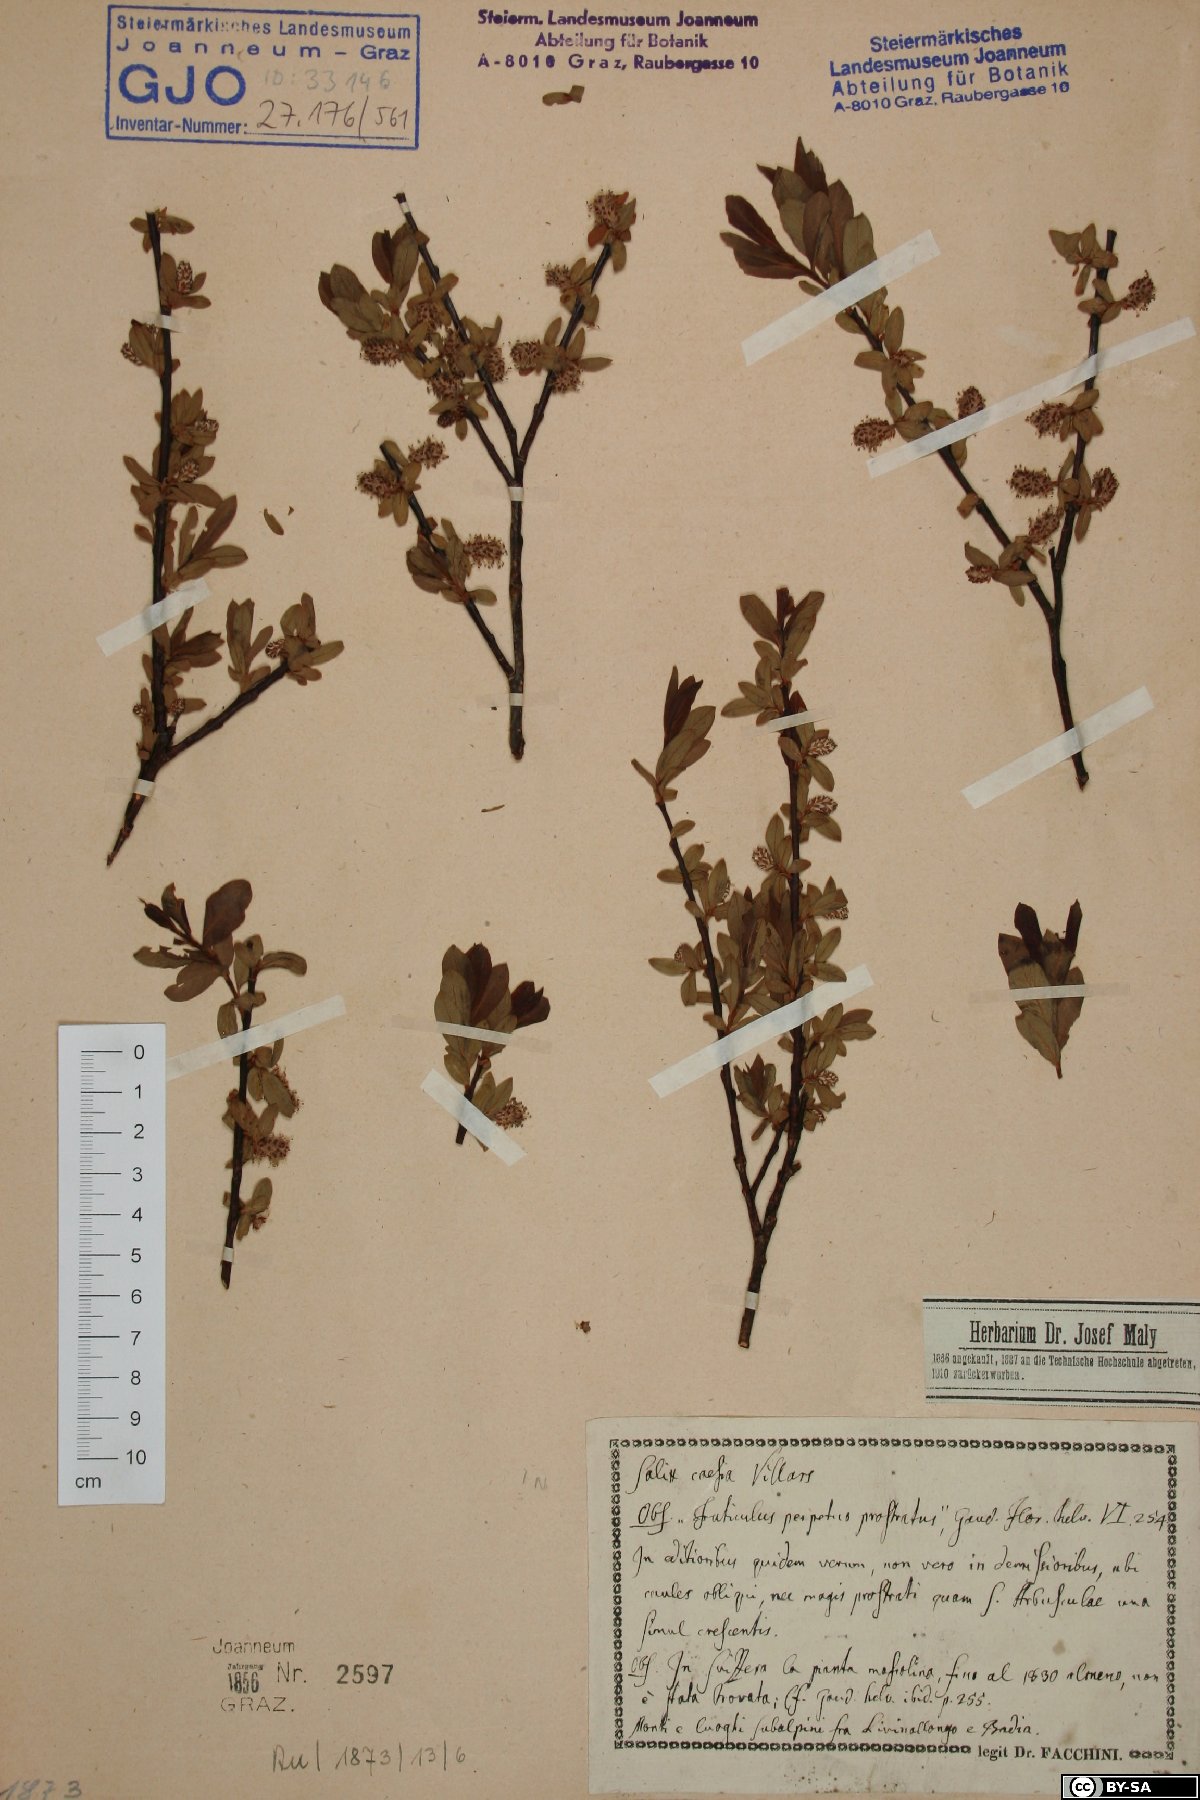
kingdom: Plantae
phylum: Tracheophyta
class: Magnoliopsida
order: Malpighiales
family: Salicaceae
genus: Salix
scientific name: Salix caesia
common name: Blue willow
